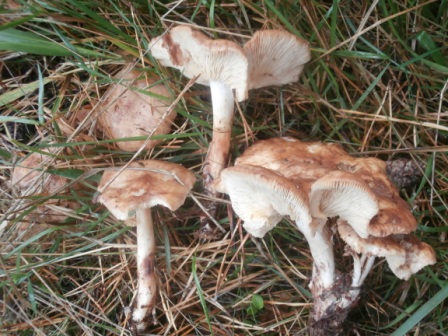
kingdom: Fungi
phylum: Basidiomycota
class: Agaricomycetes
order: Agaricales
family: Omphalotaceae
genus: Rhodocollybia
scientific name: Rhodocollybia maculata
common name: plettet fladhat
